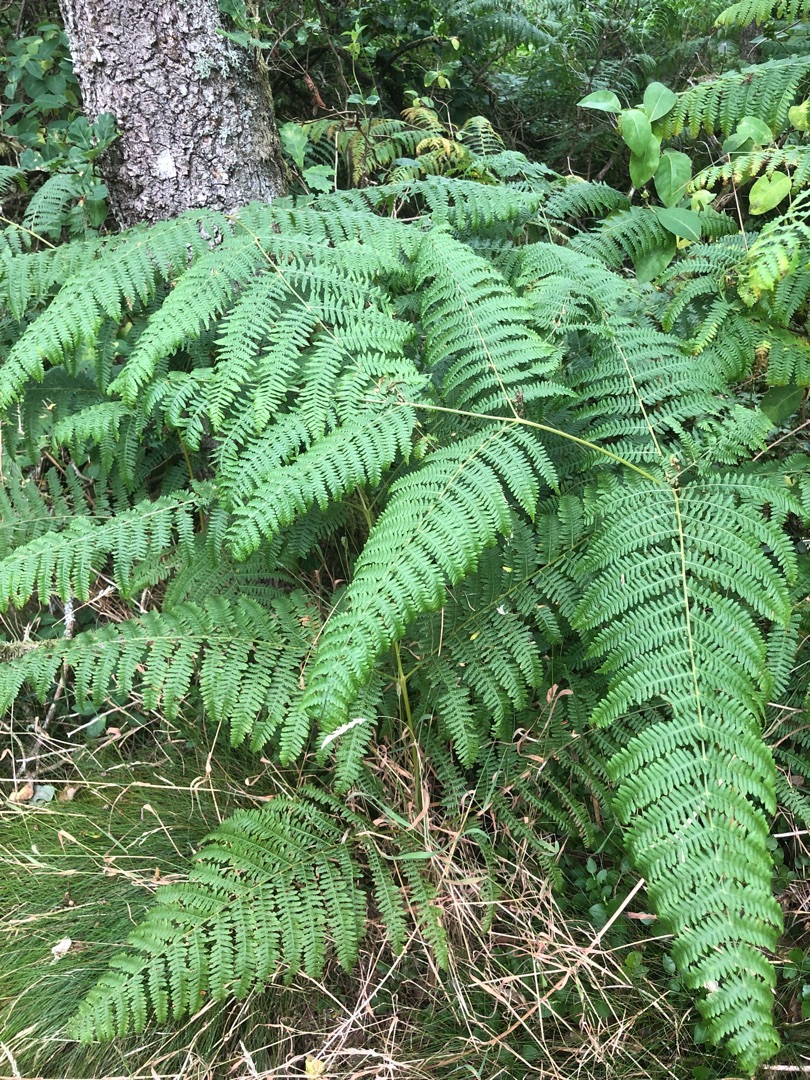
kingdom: Plantae
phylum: Tracheophyta
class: Polypodiopsida
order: Polypodiales
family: Dennstaedtiaceae
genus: Pteridium
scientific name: Pteridium aquilinum
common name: Ørnebregne
